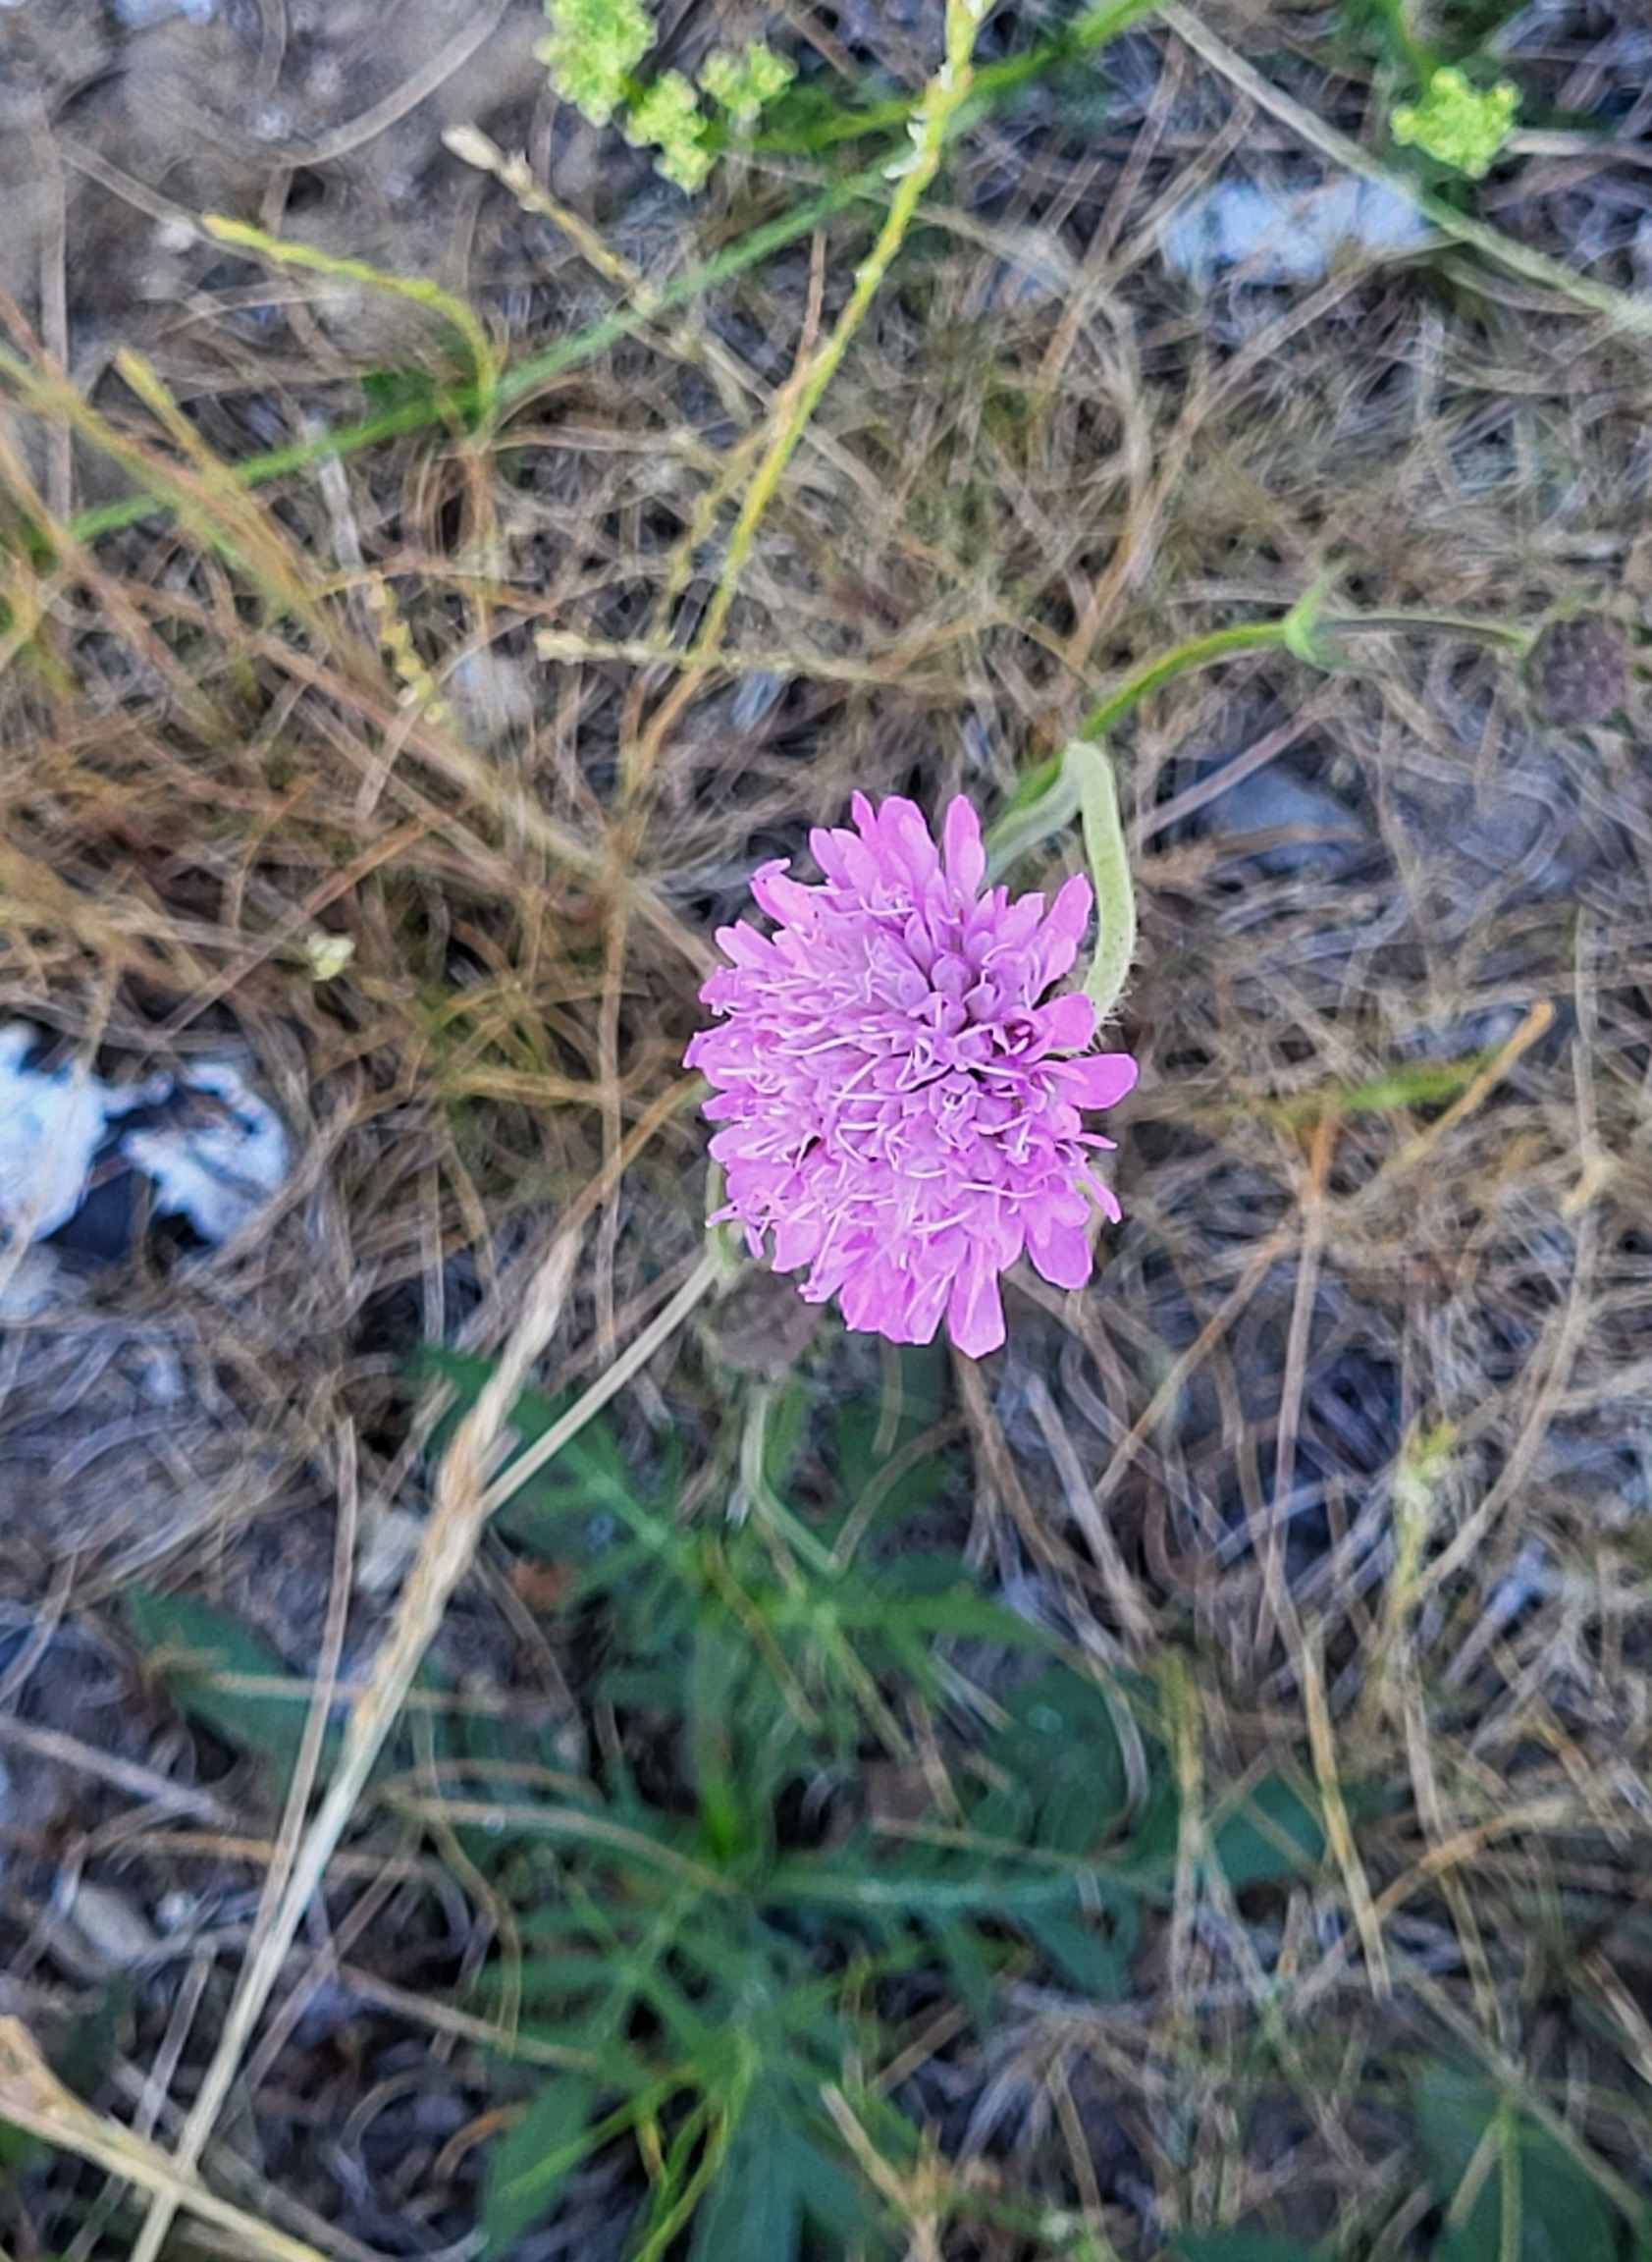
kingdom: Plantae
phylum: Tracheophyta
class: Magnoliopsida
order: Dipsacales
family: Caprifoliaceae
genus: Knautia
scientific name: Knautia arvensis
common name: Blåhat
